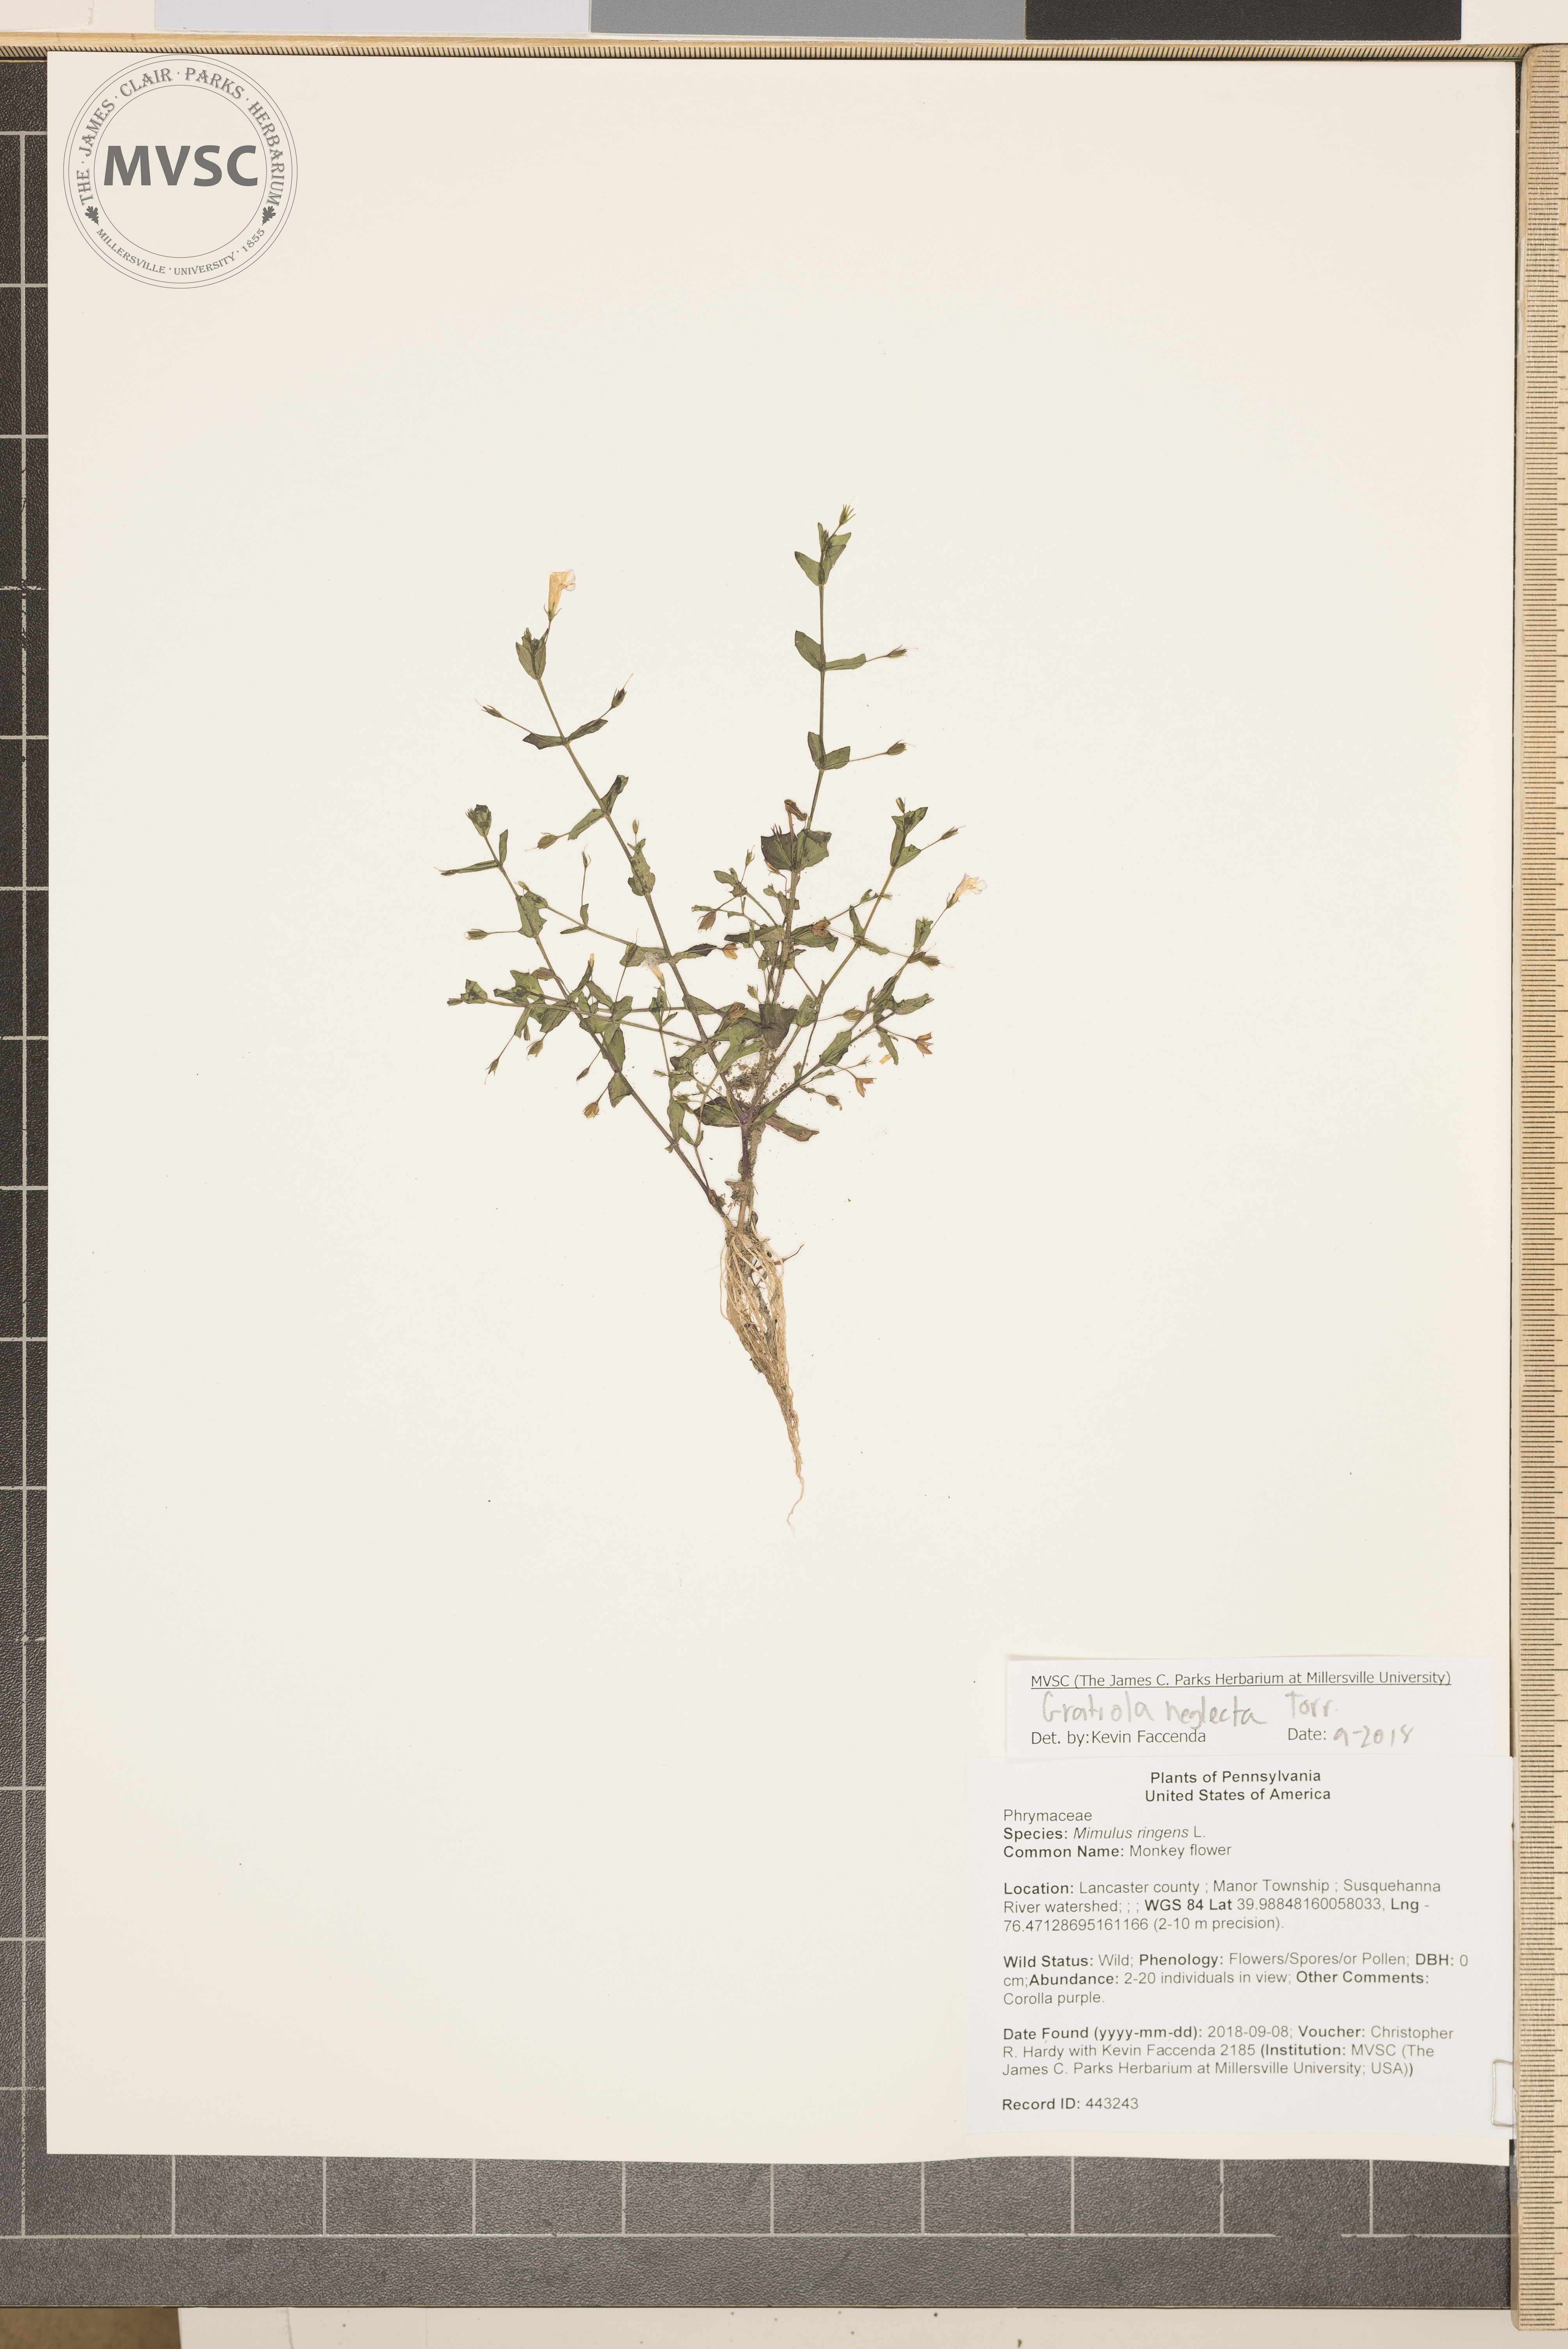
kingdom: Plantae
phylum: Tracheophyta
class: Magnoliopsida
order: Lamiales
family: Linderniaceae
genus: Lindernia
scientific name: Lindernia dubia
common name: Annual false pimpernel
